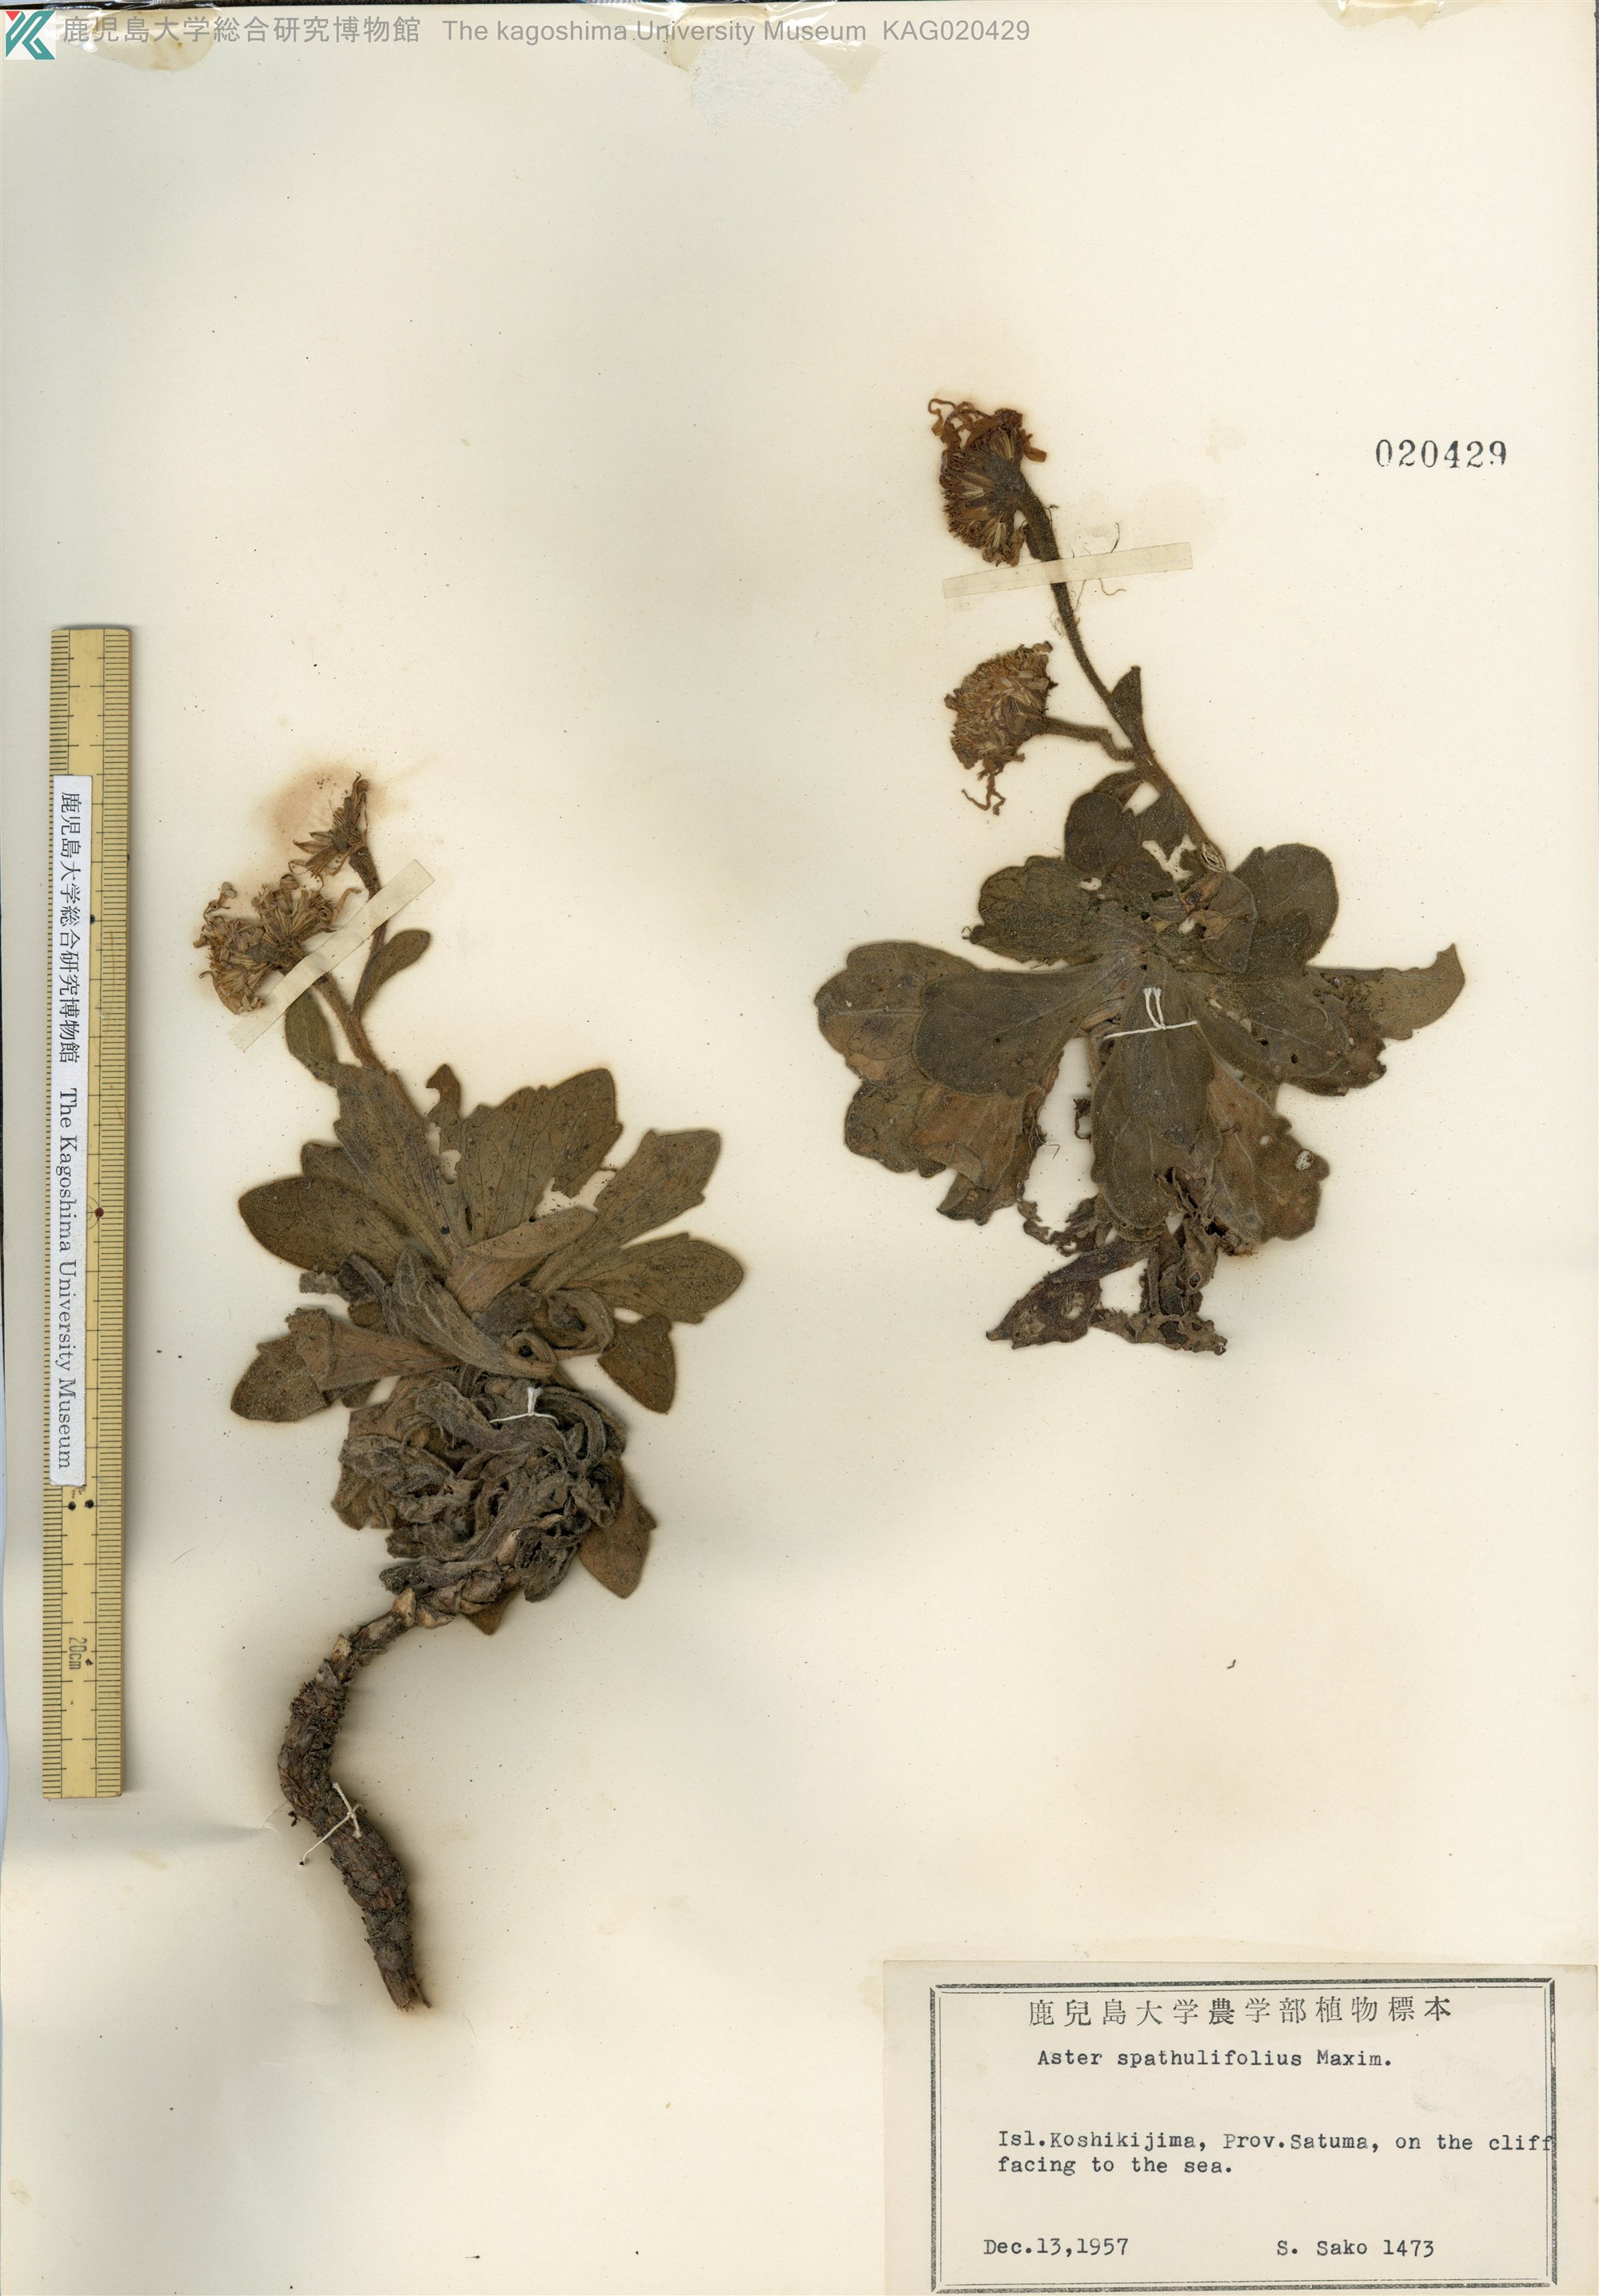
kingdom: Plantae
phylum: Tracheophyta
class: Magnoliopsida
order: Asterales
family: Asteraceae
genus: Aster
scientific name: Aster spathulifolius
